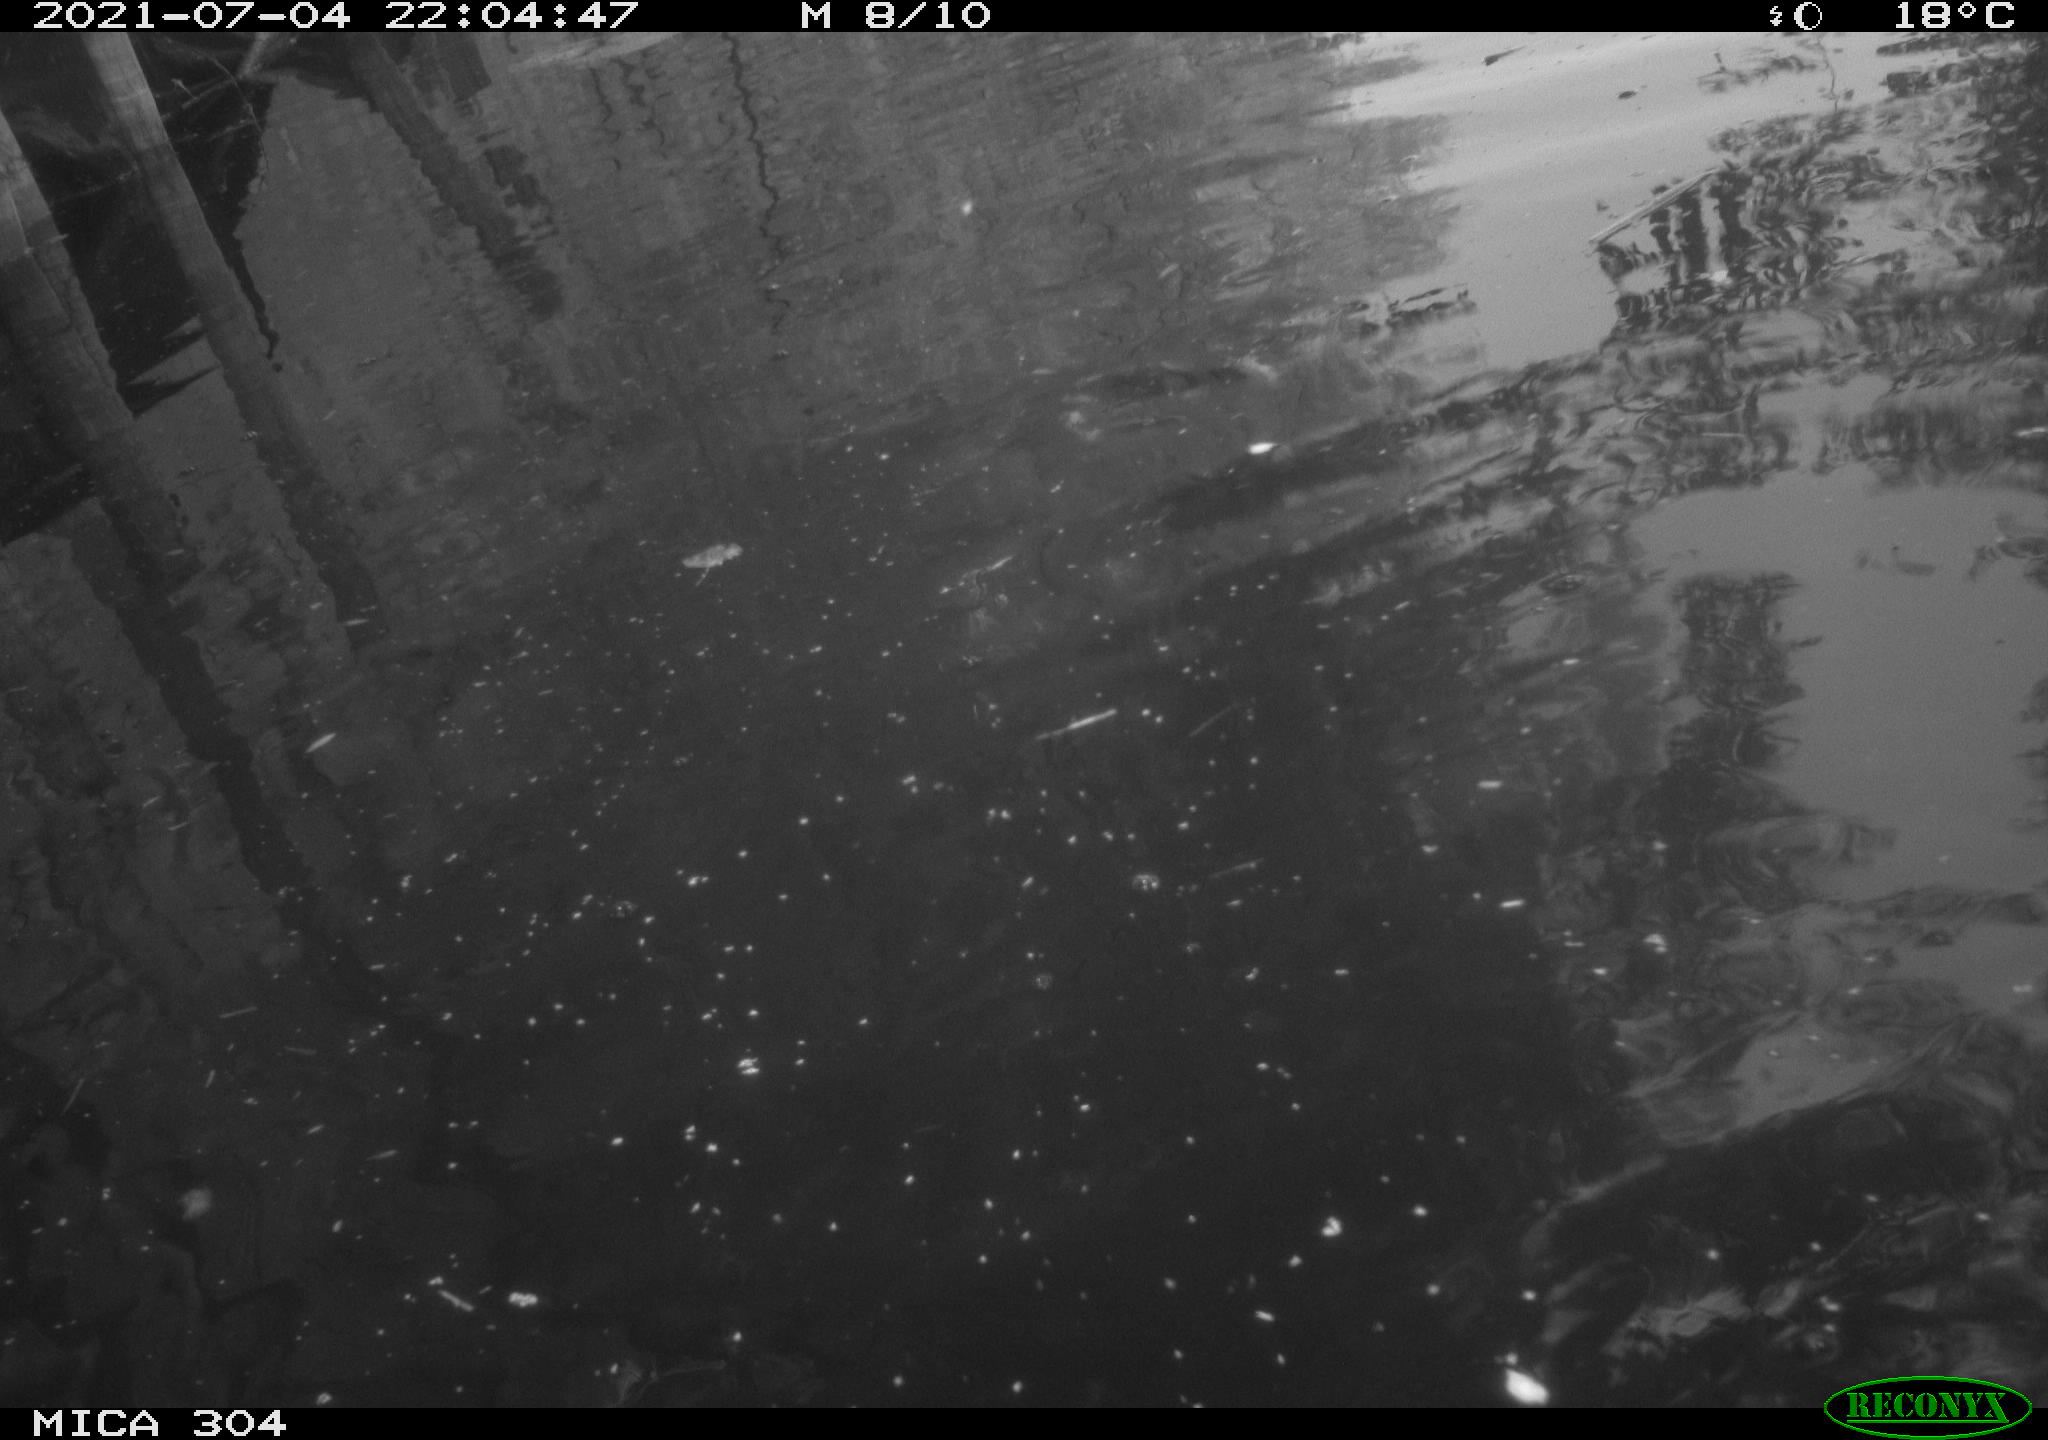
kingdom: Animalia
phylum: Chordata
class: Aves
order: Anseriformes
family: Anatidae
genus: Mareca
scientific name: Mareca strepera
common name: Gadwall
